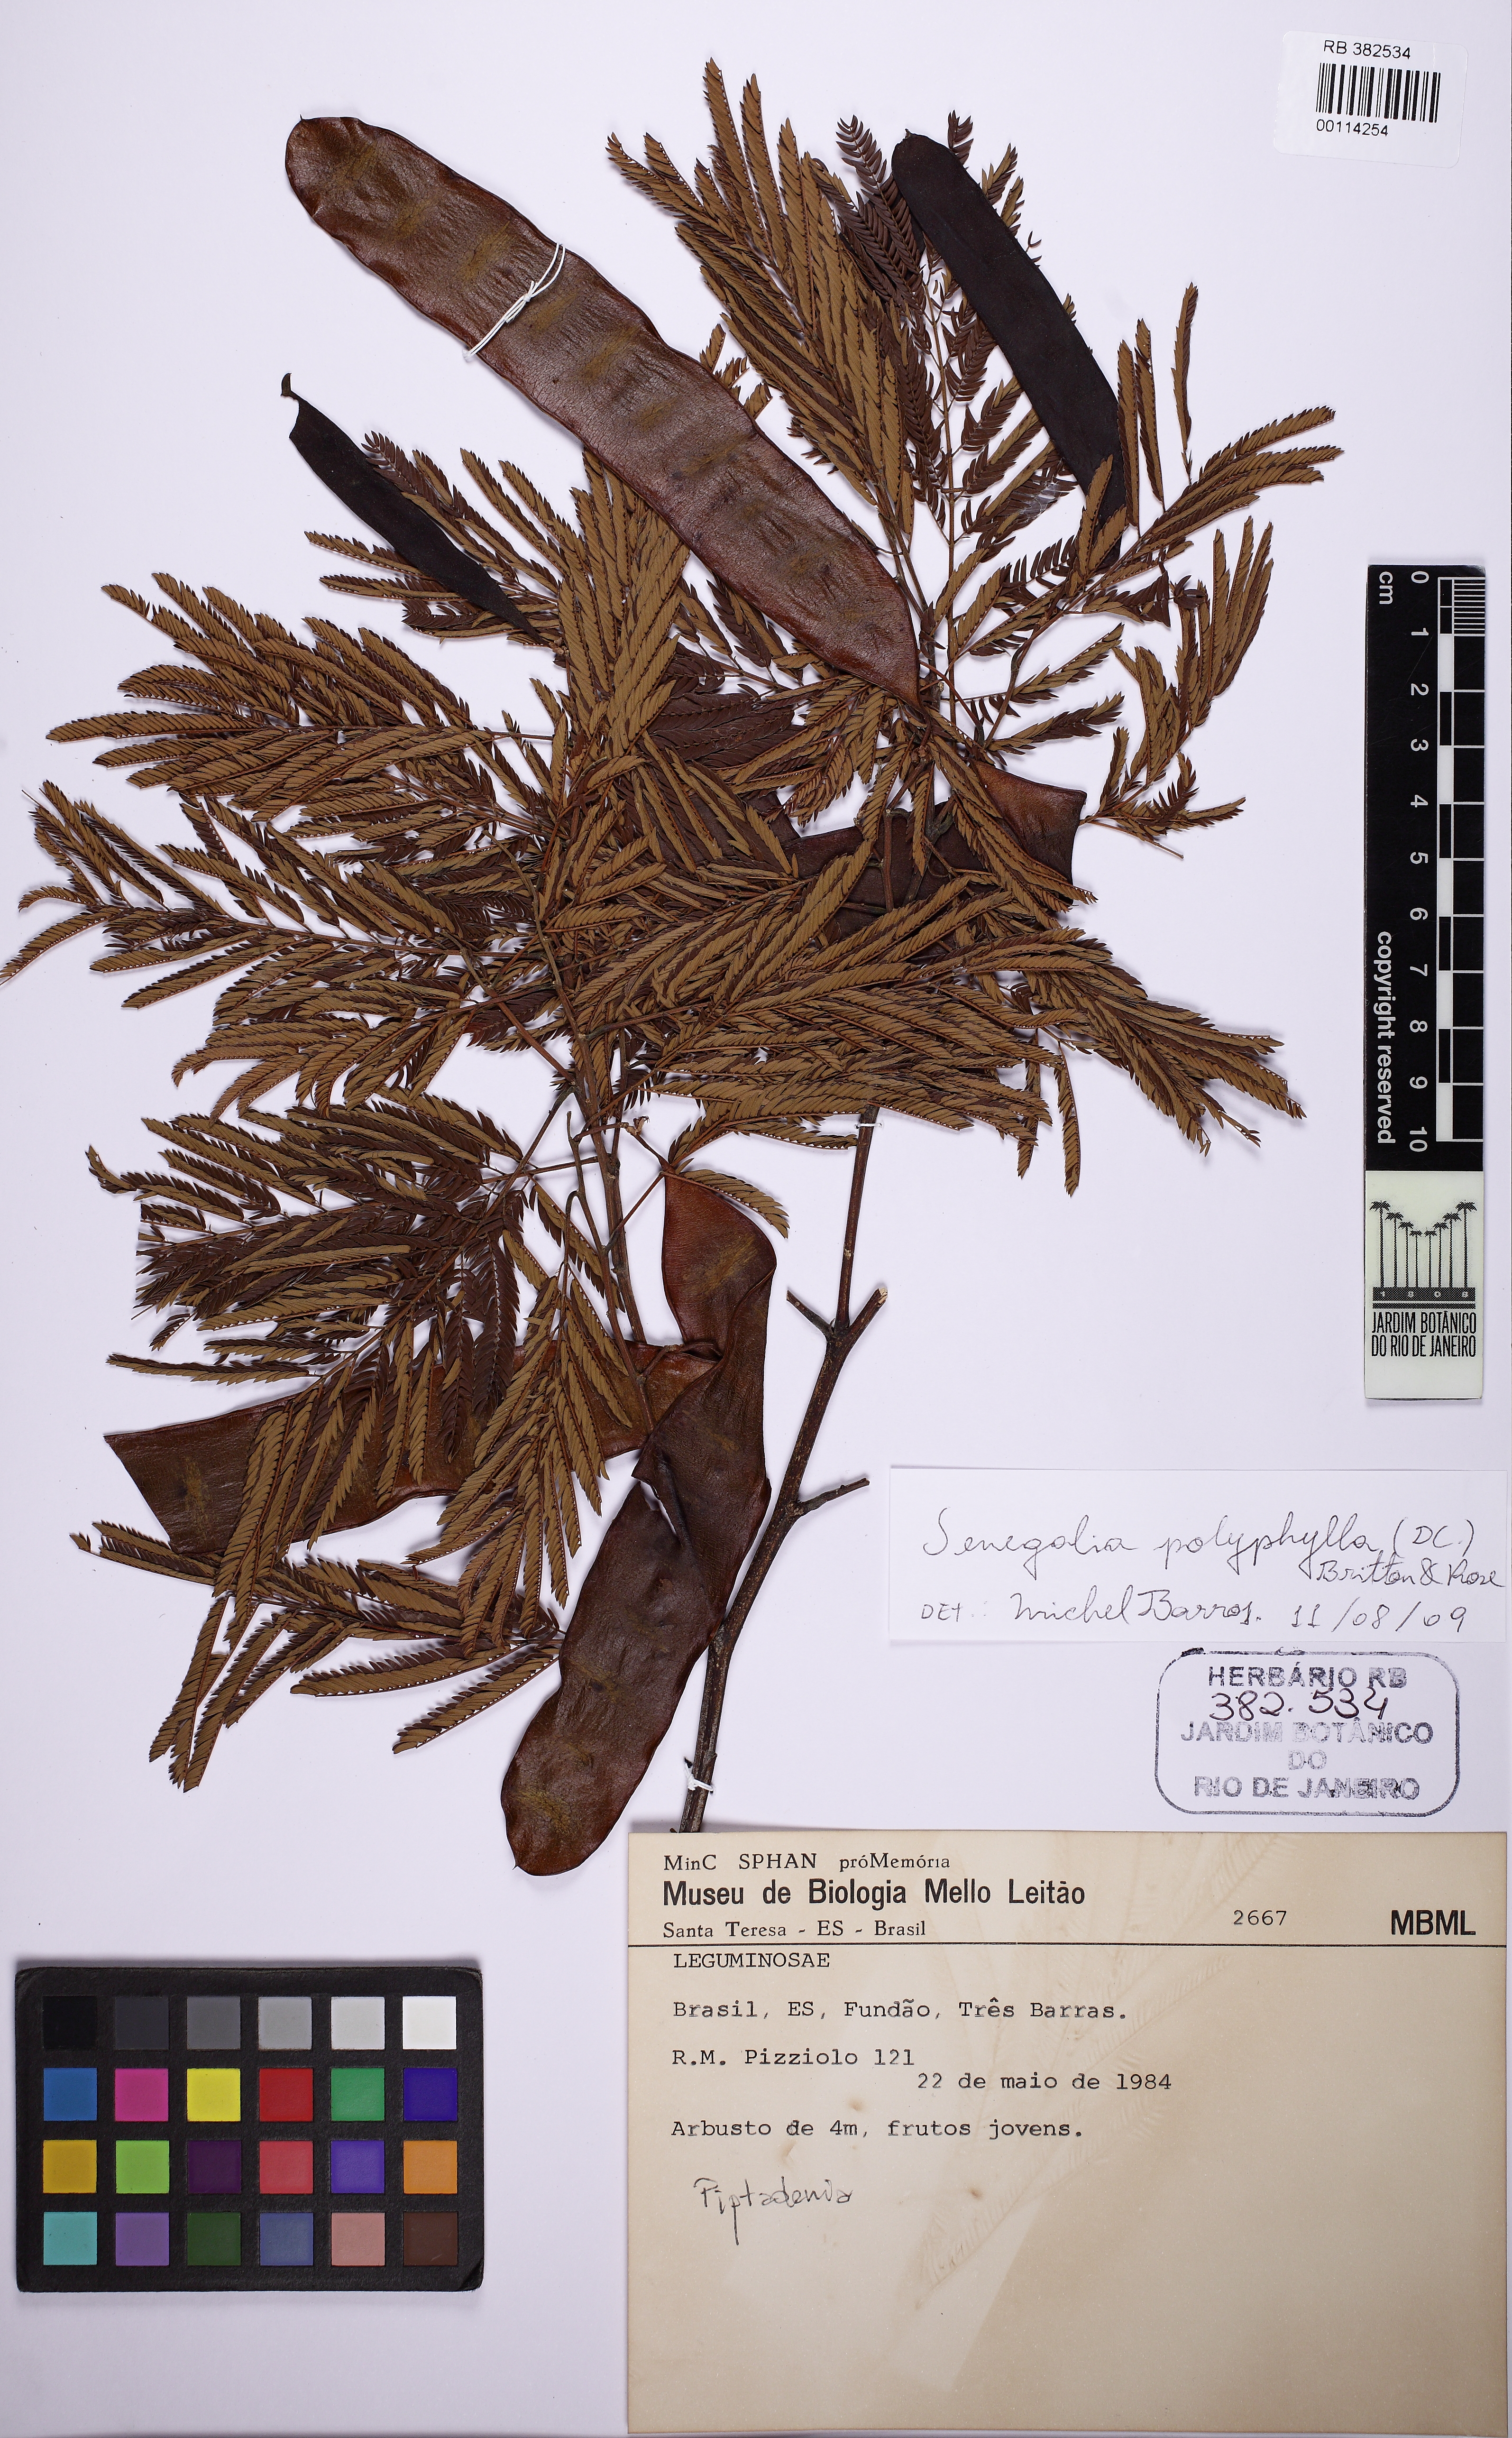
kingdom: Plantae
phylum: Tracheophyta
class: Magnoliopsida
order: Fabales
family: Fabaceae
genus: Pseudopiptadenia
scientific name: Pseudopiptadenia
